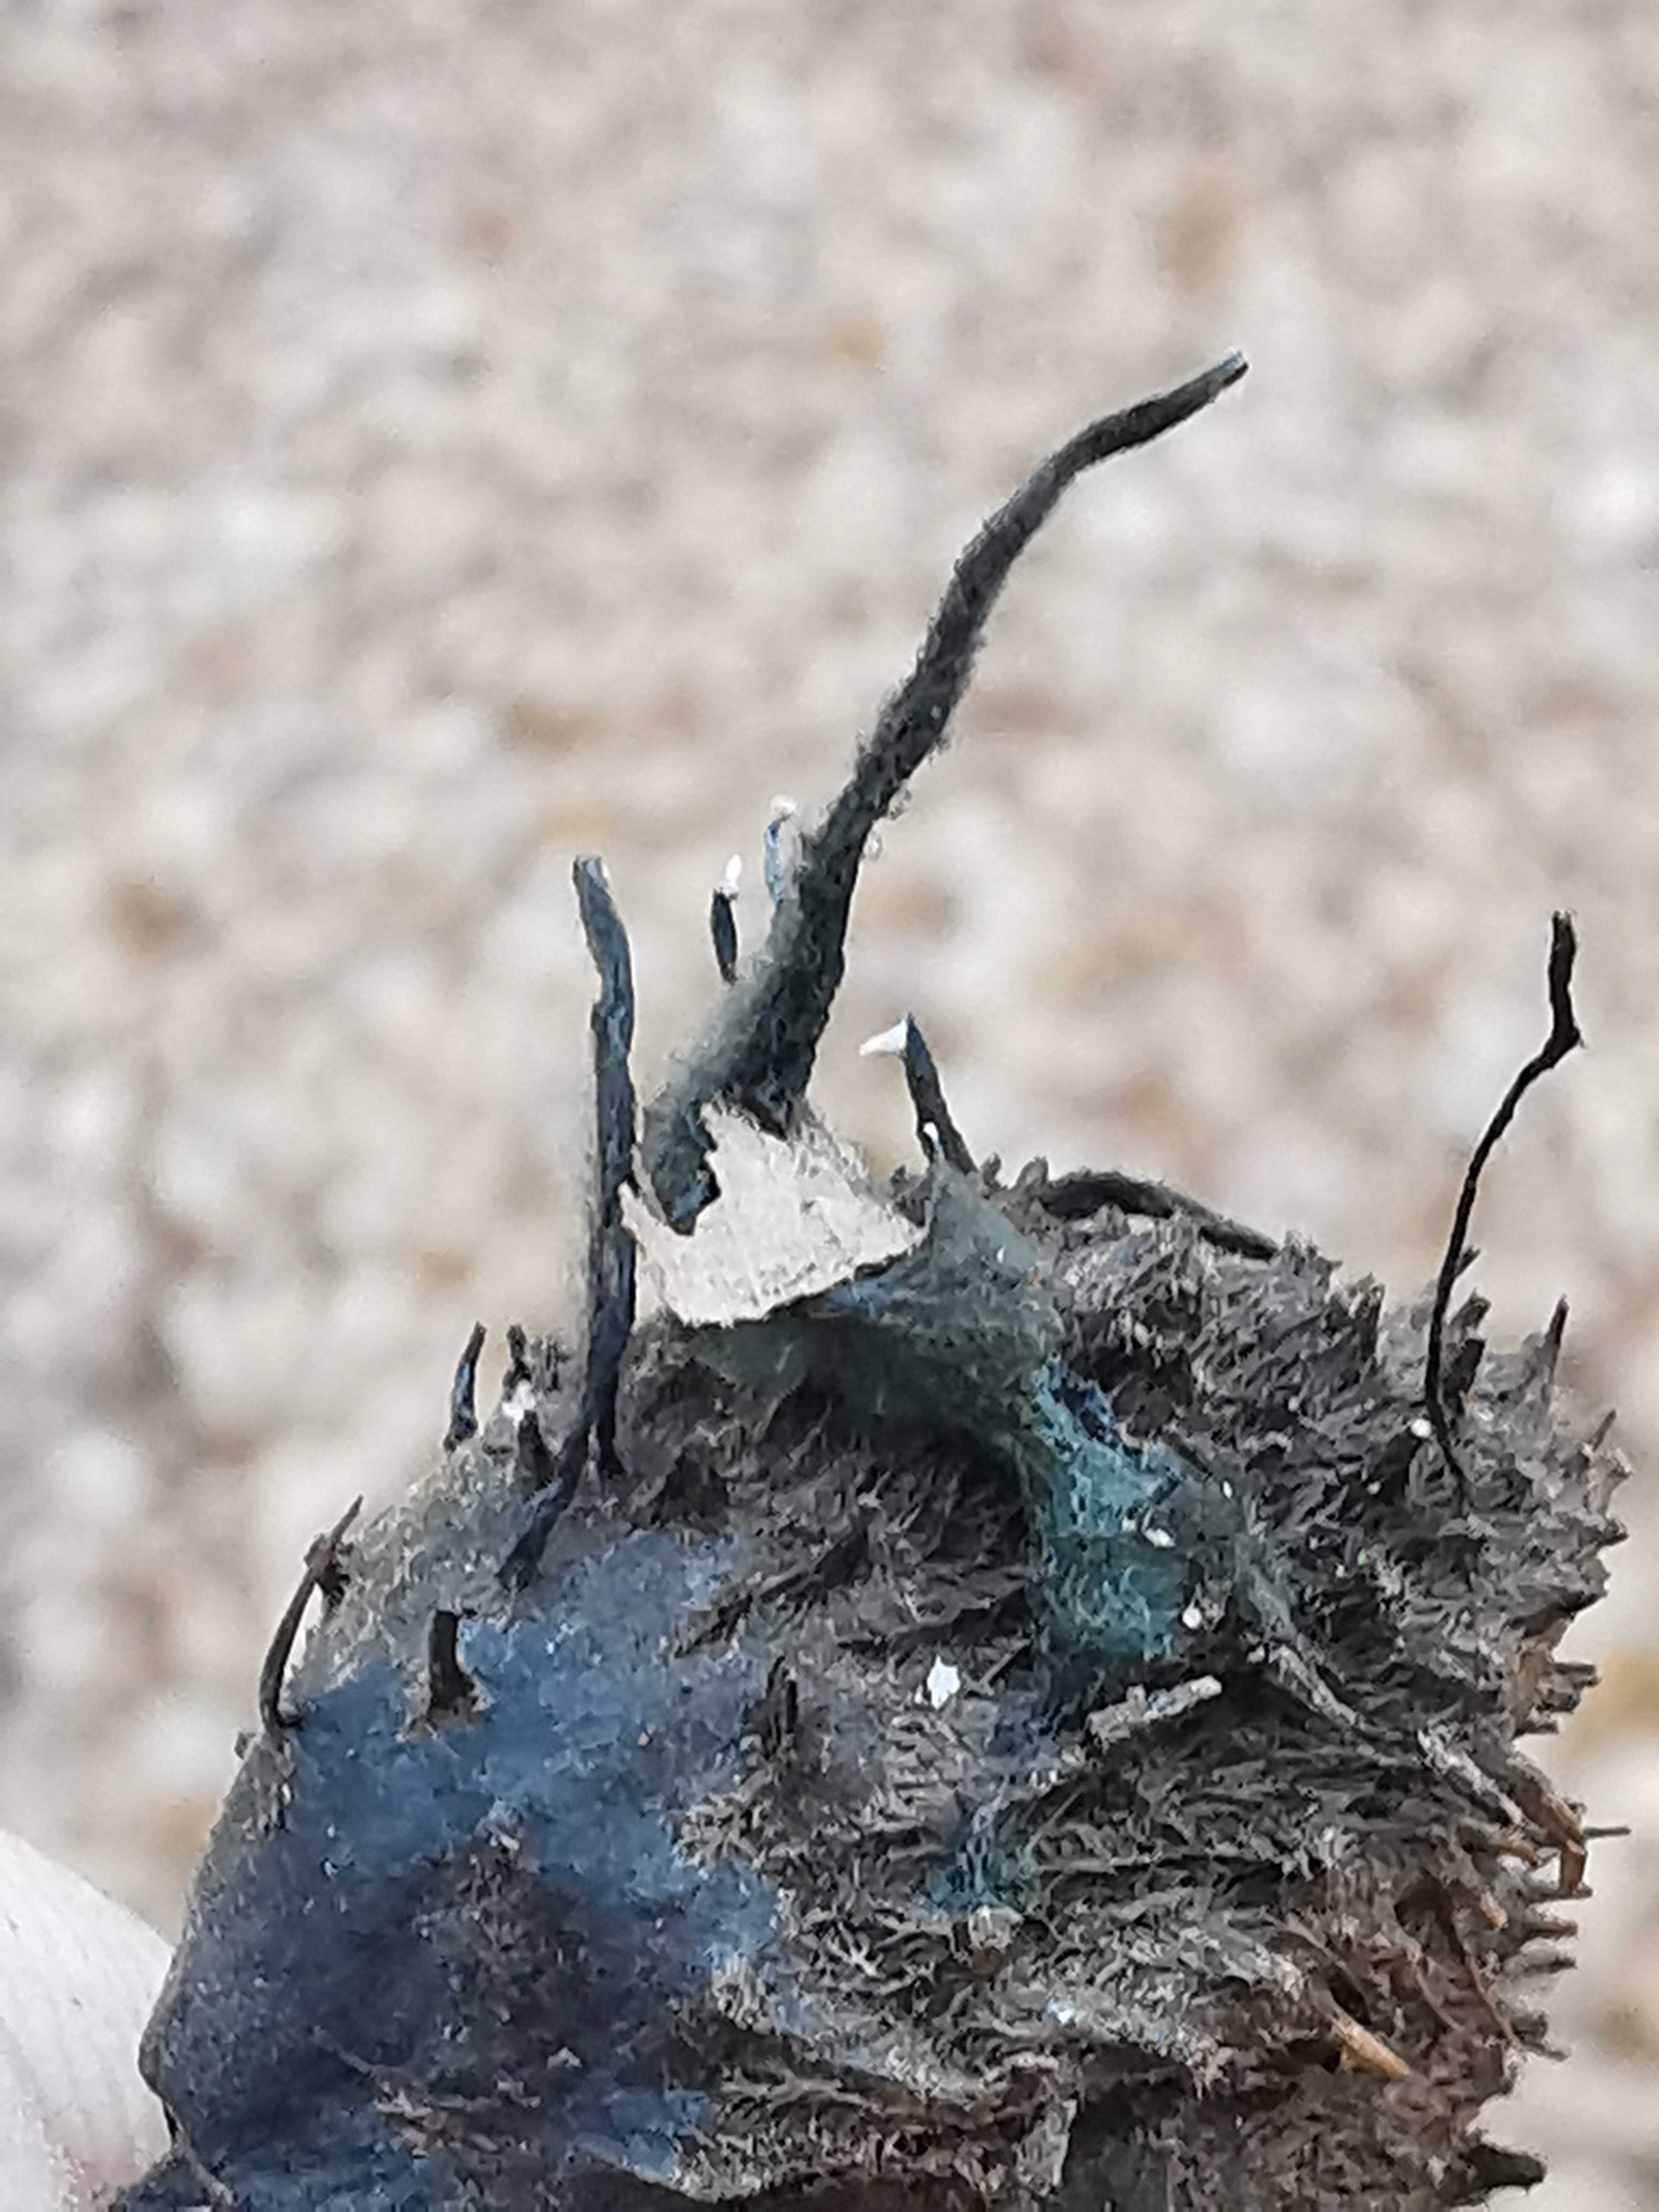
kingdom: Fungi
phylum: Ascomycota
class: Sordariomycetes
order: Xylariales
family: Xylariaceae
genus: Xylaria
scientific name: Xylaria carpophila
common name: bogskål-stødsvamp
